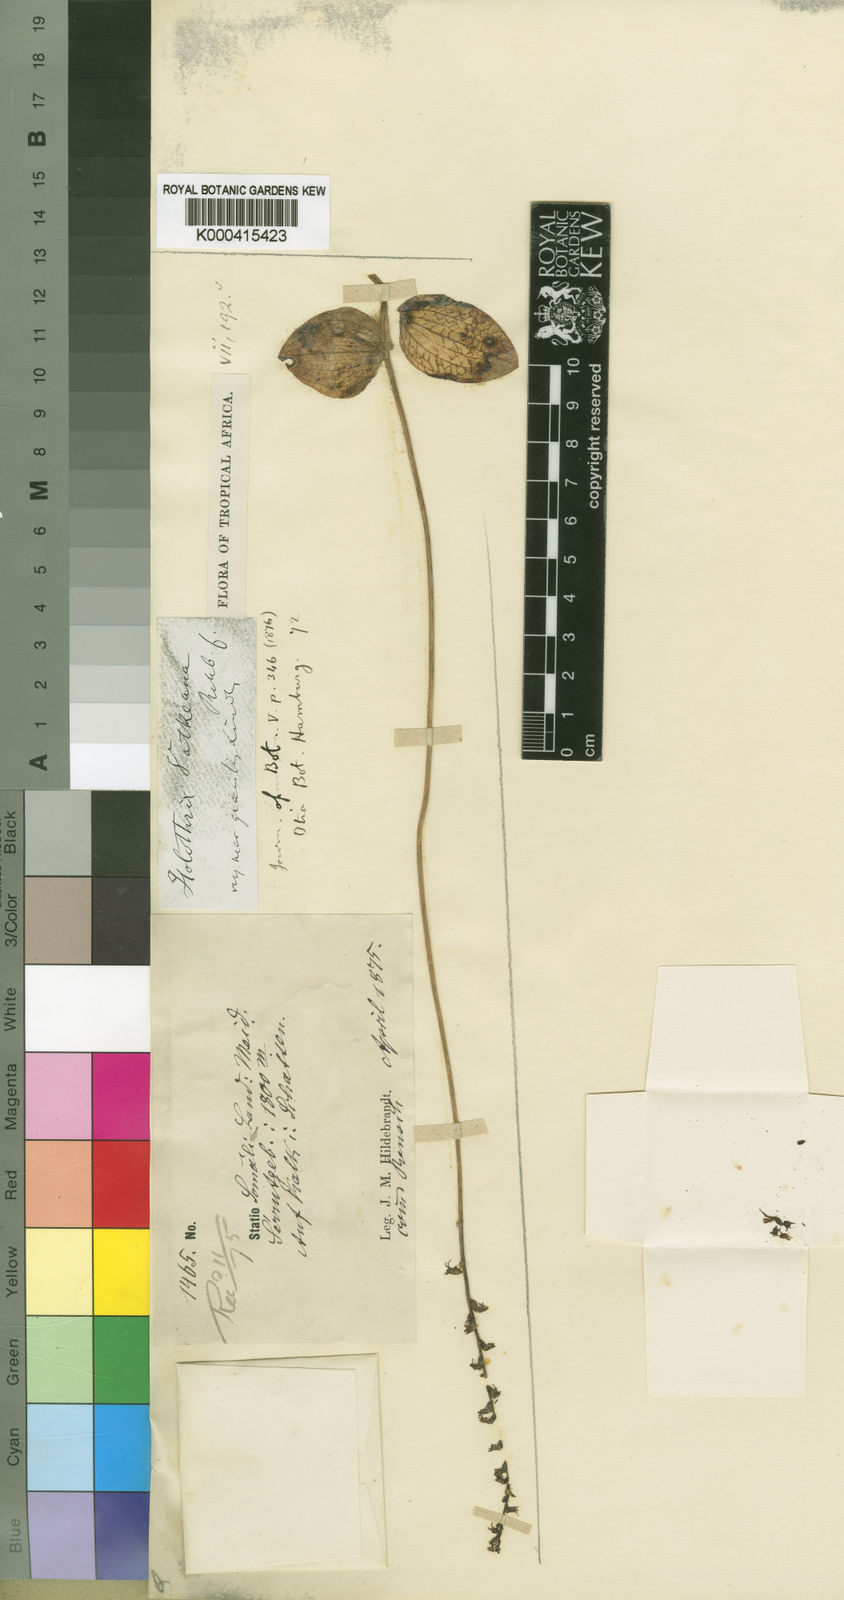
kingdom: Plantae
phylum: Tracheophyta
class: Liliopsida
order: Asparagales
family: Orchidaceae
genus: Holothrix
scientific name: Holothrix arachnoidea
